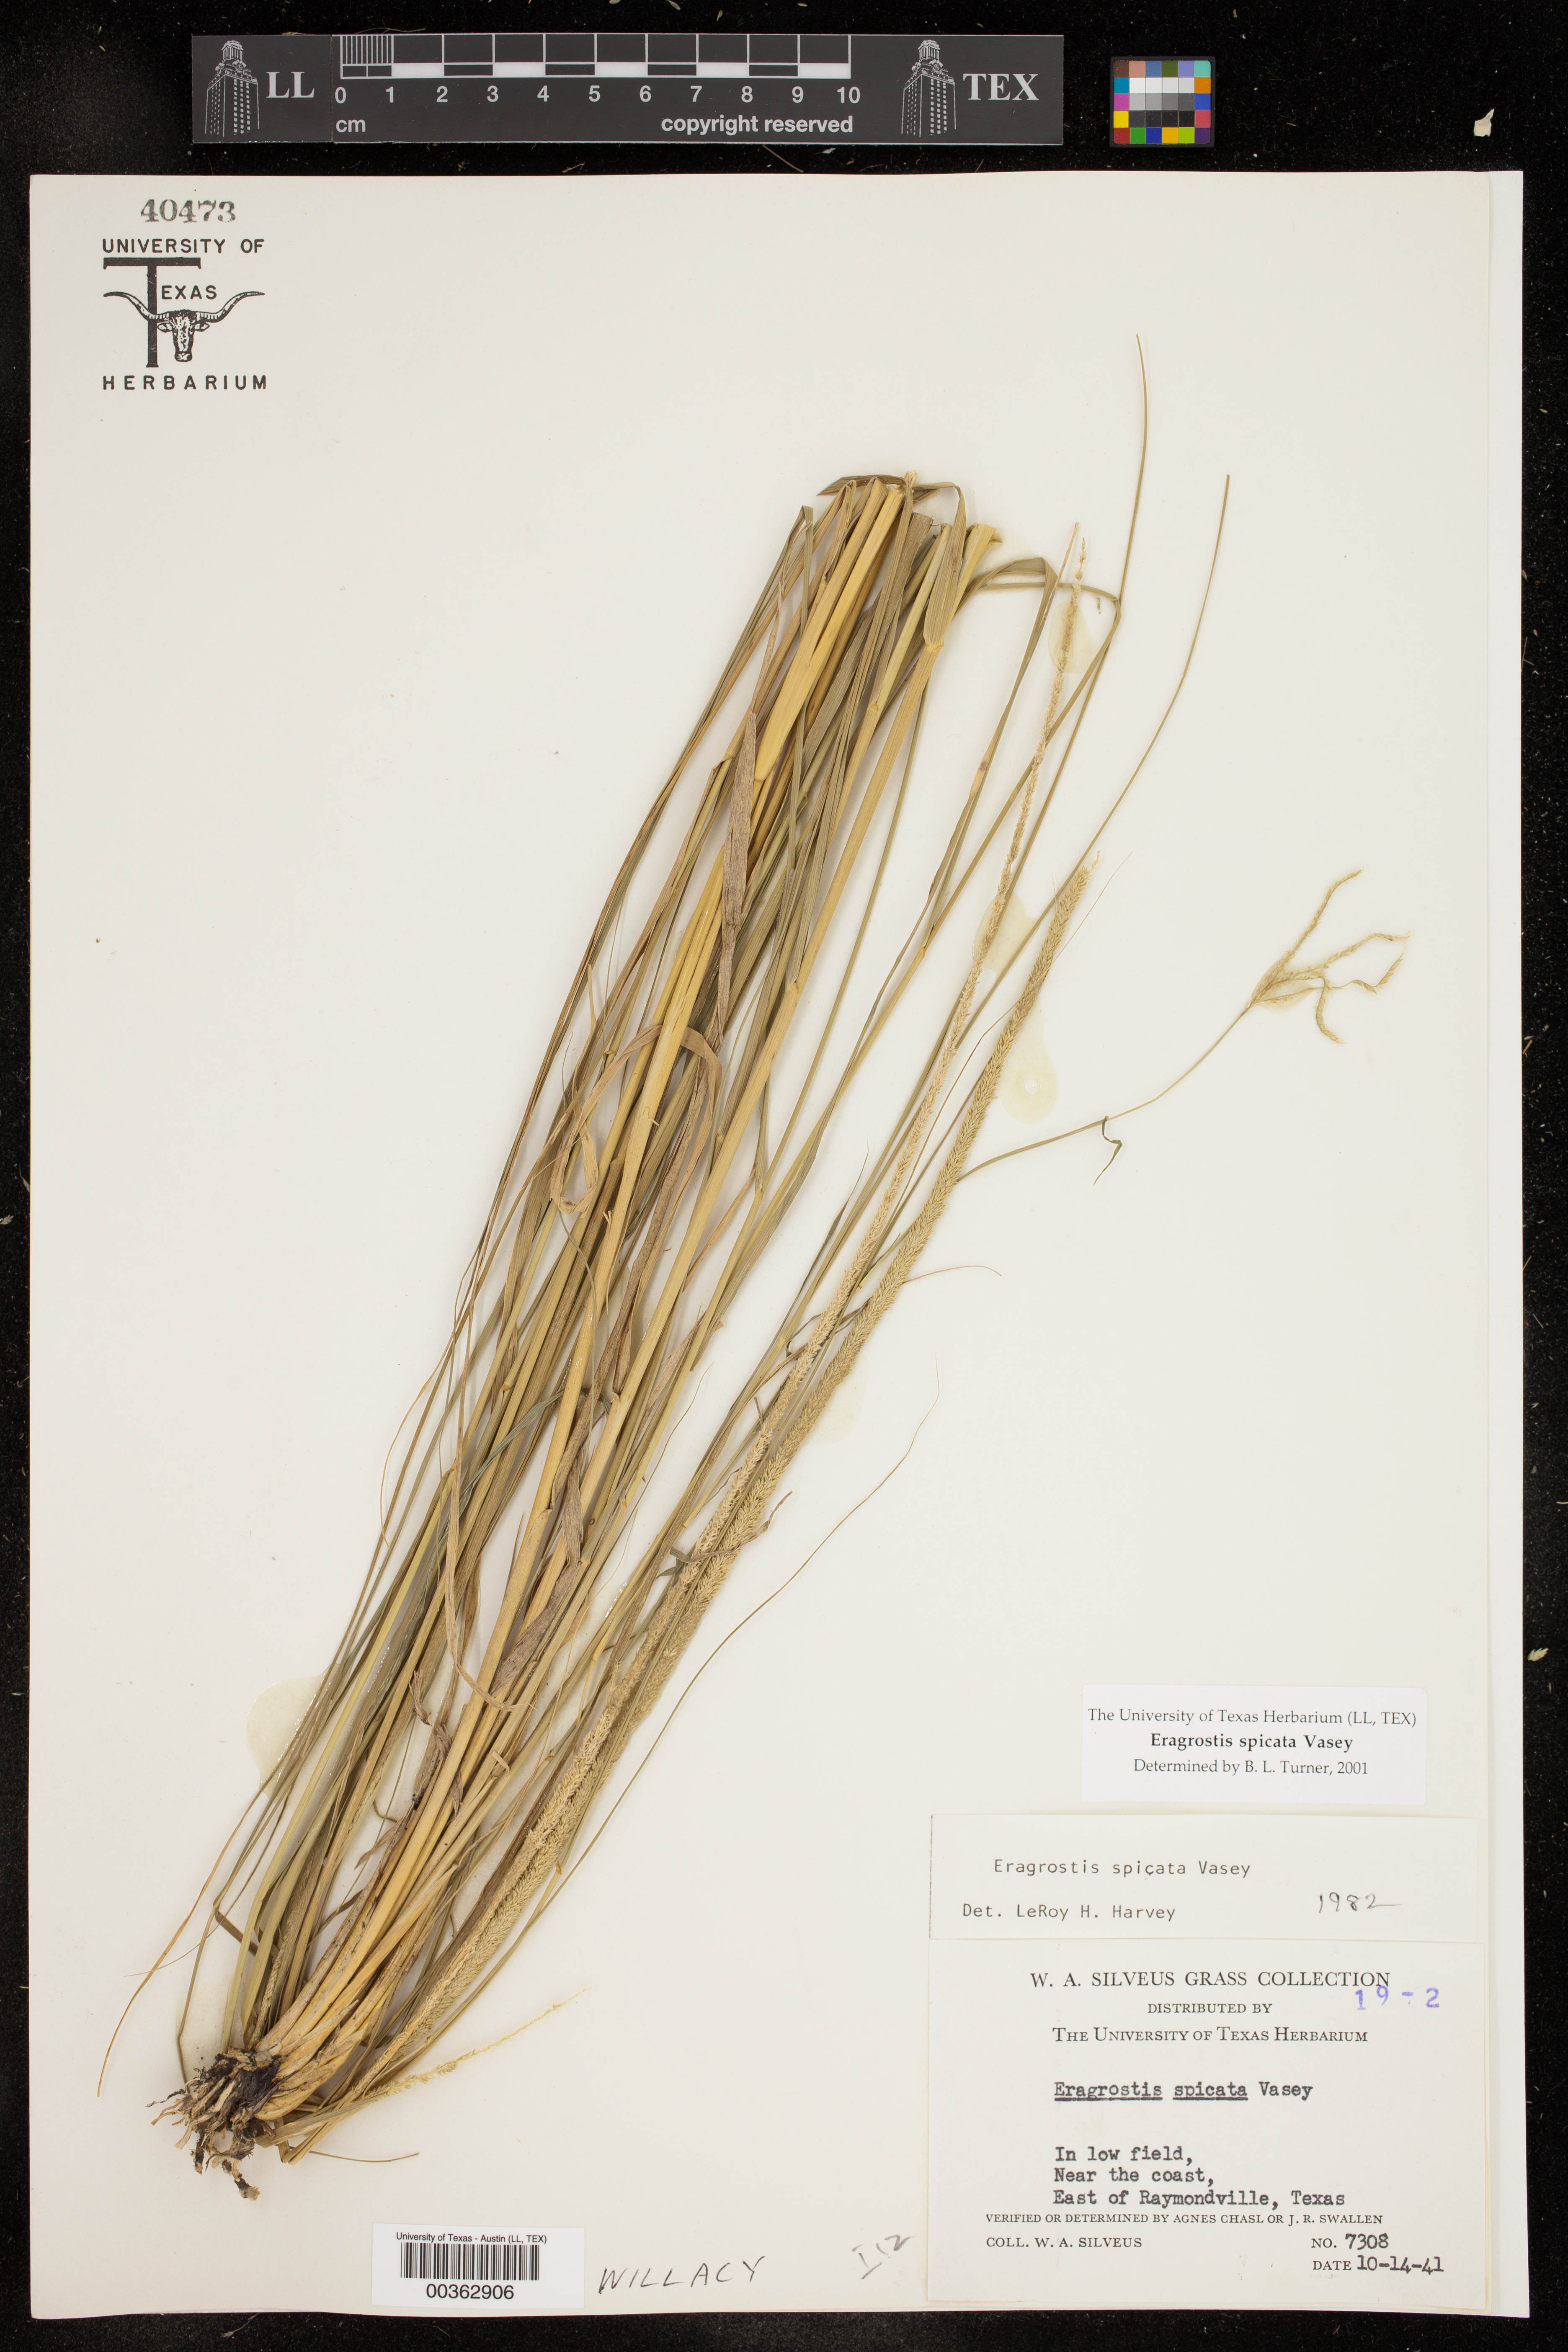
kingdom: Plantae
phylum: Tracheophyta
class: Liliopsida
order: Poales
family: Poaceae
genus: Eragrostis
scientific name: Eragrostis spicata
